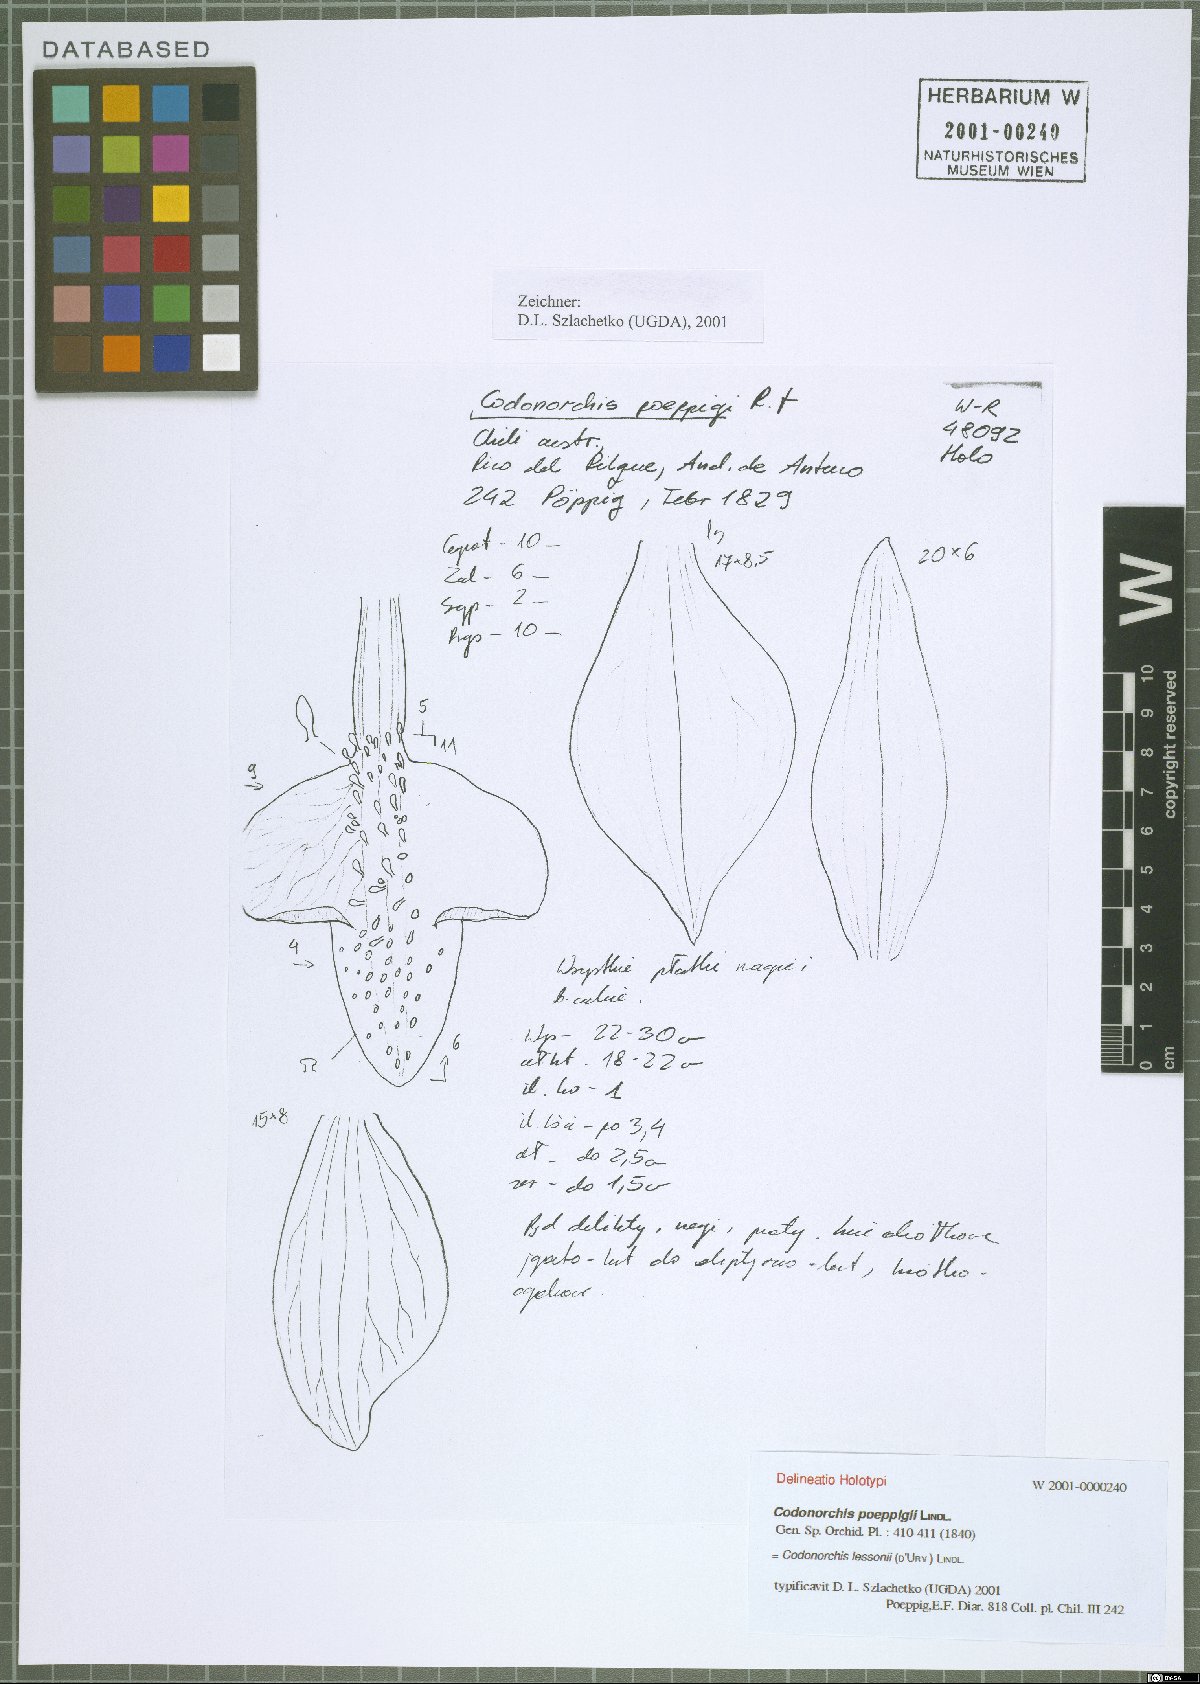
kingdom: Plantae
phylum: Tracheophyta
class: Liliopsida
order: Asparagales
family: Orchidaceae
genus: Codonorchis
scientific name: Codonorchis lessonii
